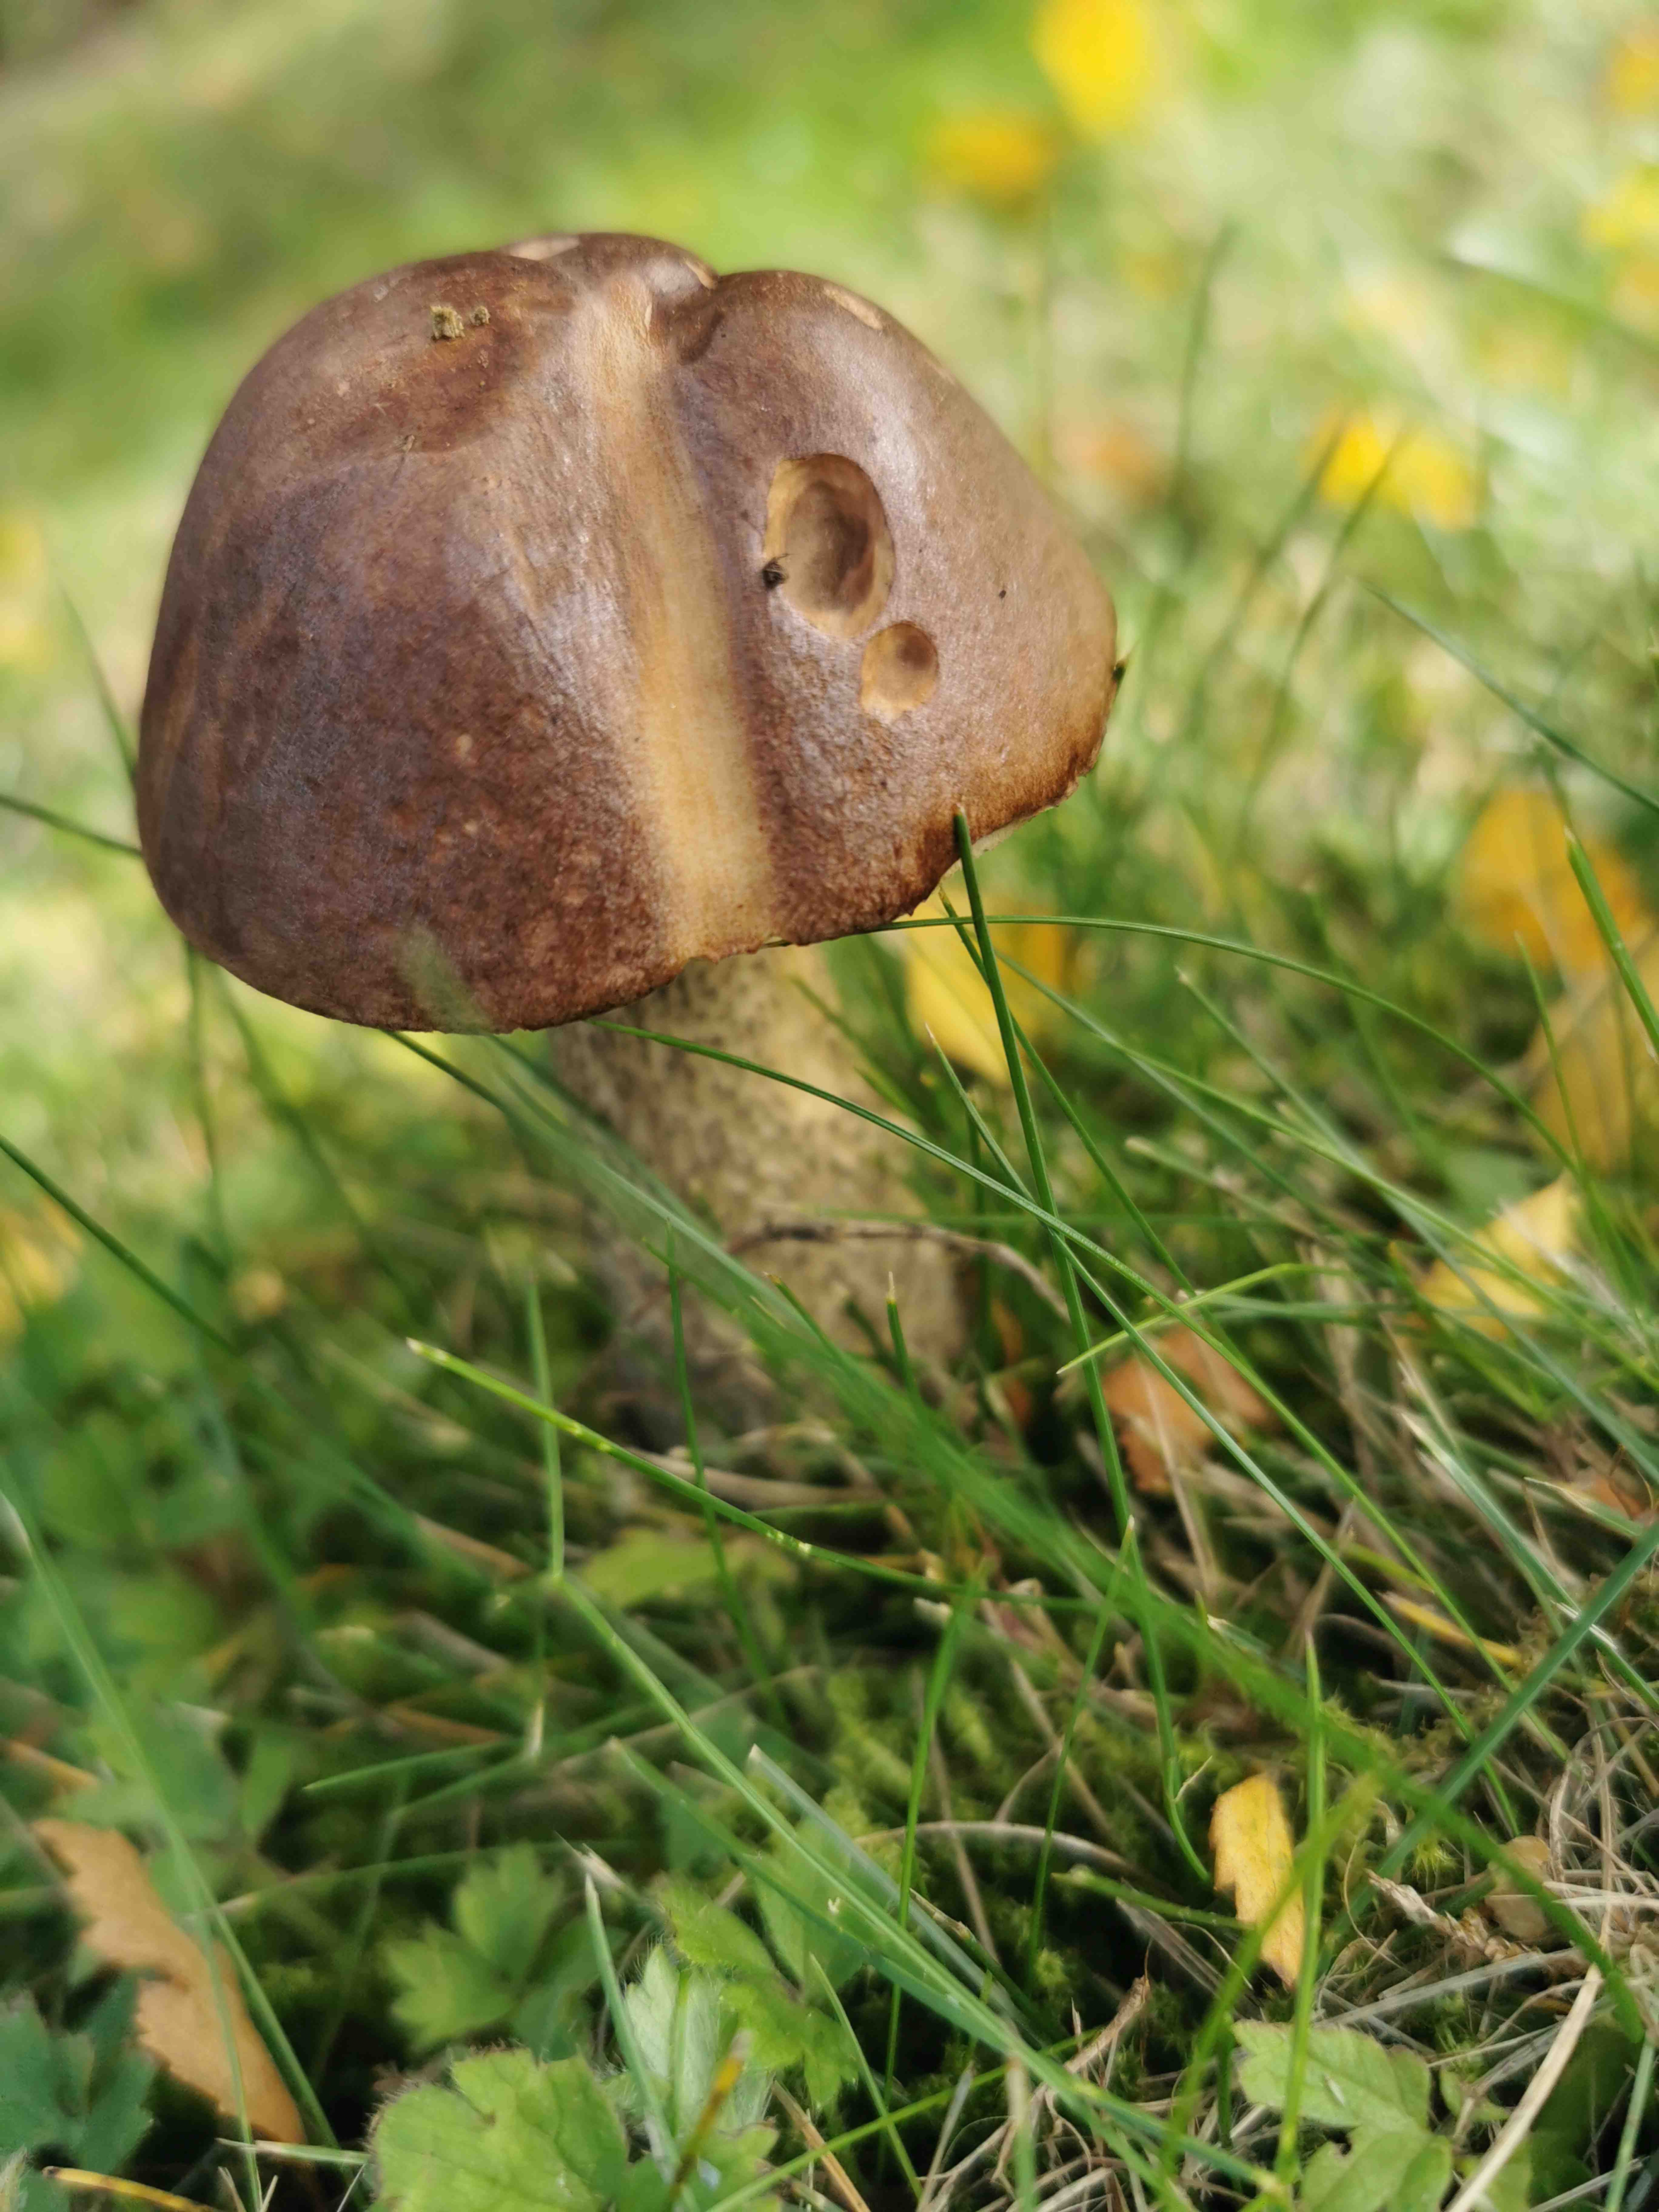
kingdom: Fungi
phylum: Basidiomycota
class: Agaricomycetes
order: Boletales
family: Boletaceae
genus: Leccinum
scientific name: Leccinum
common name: skælrørhat
